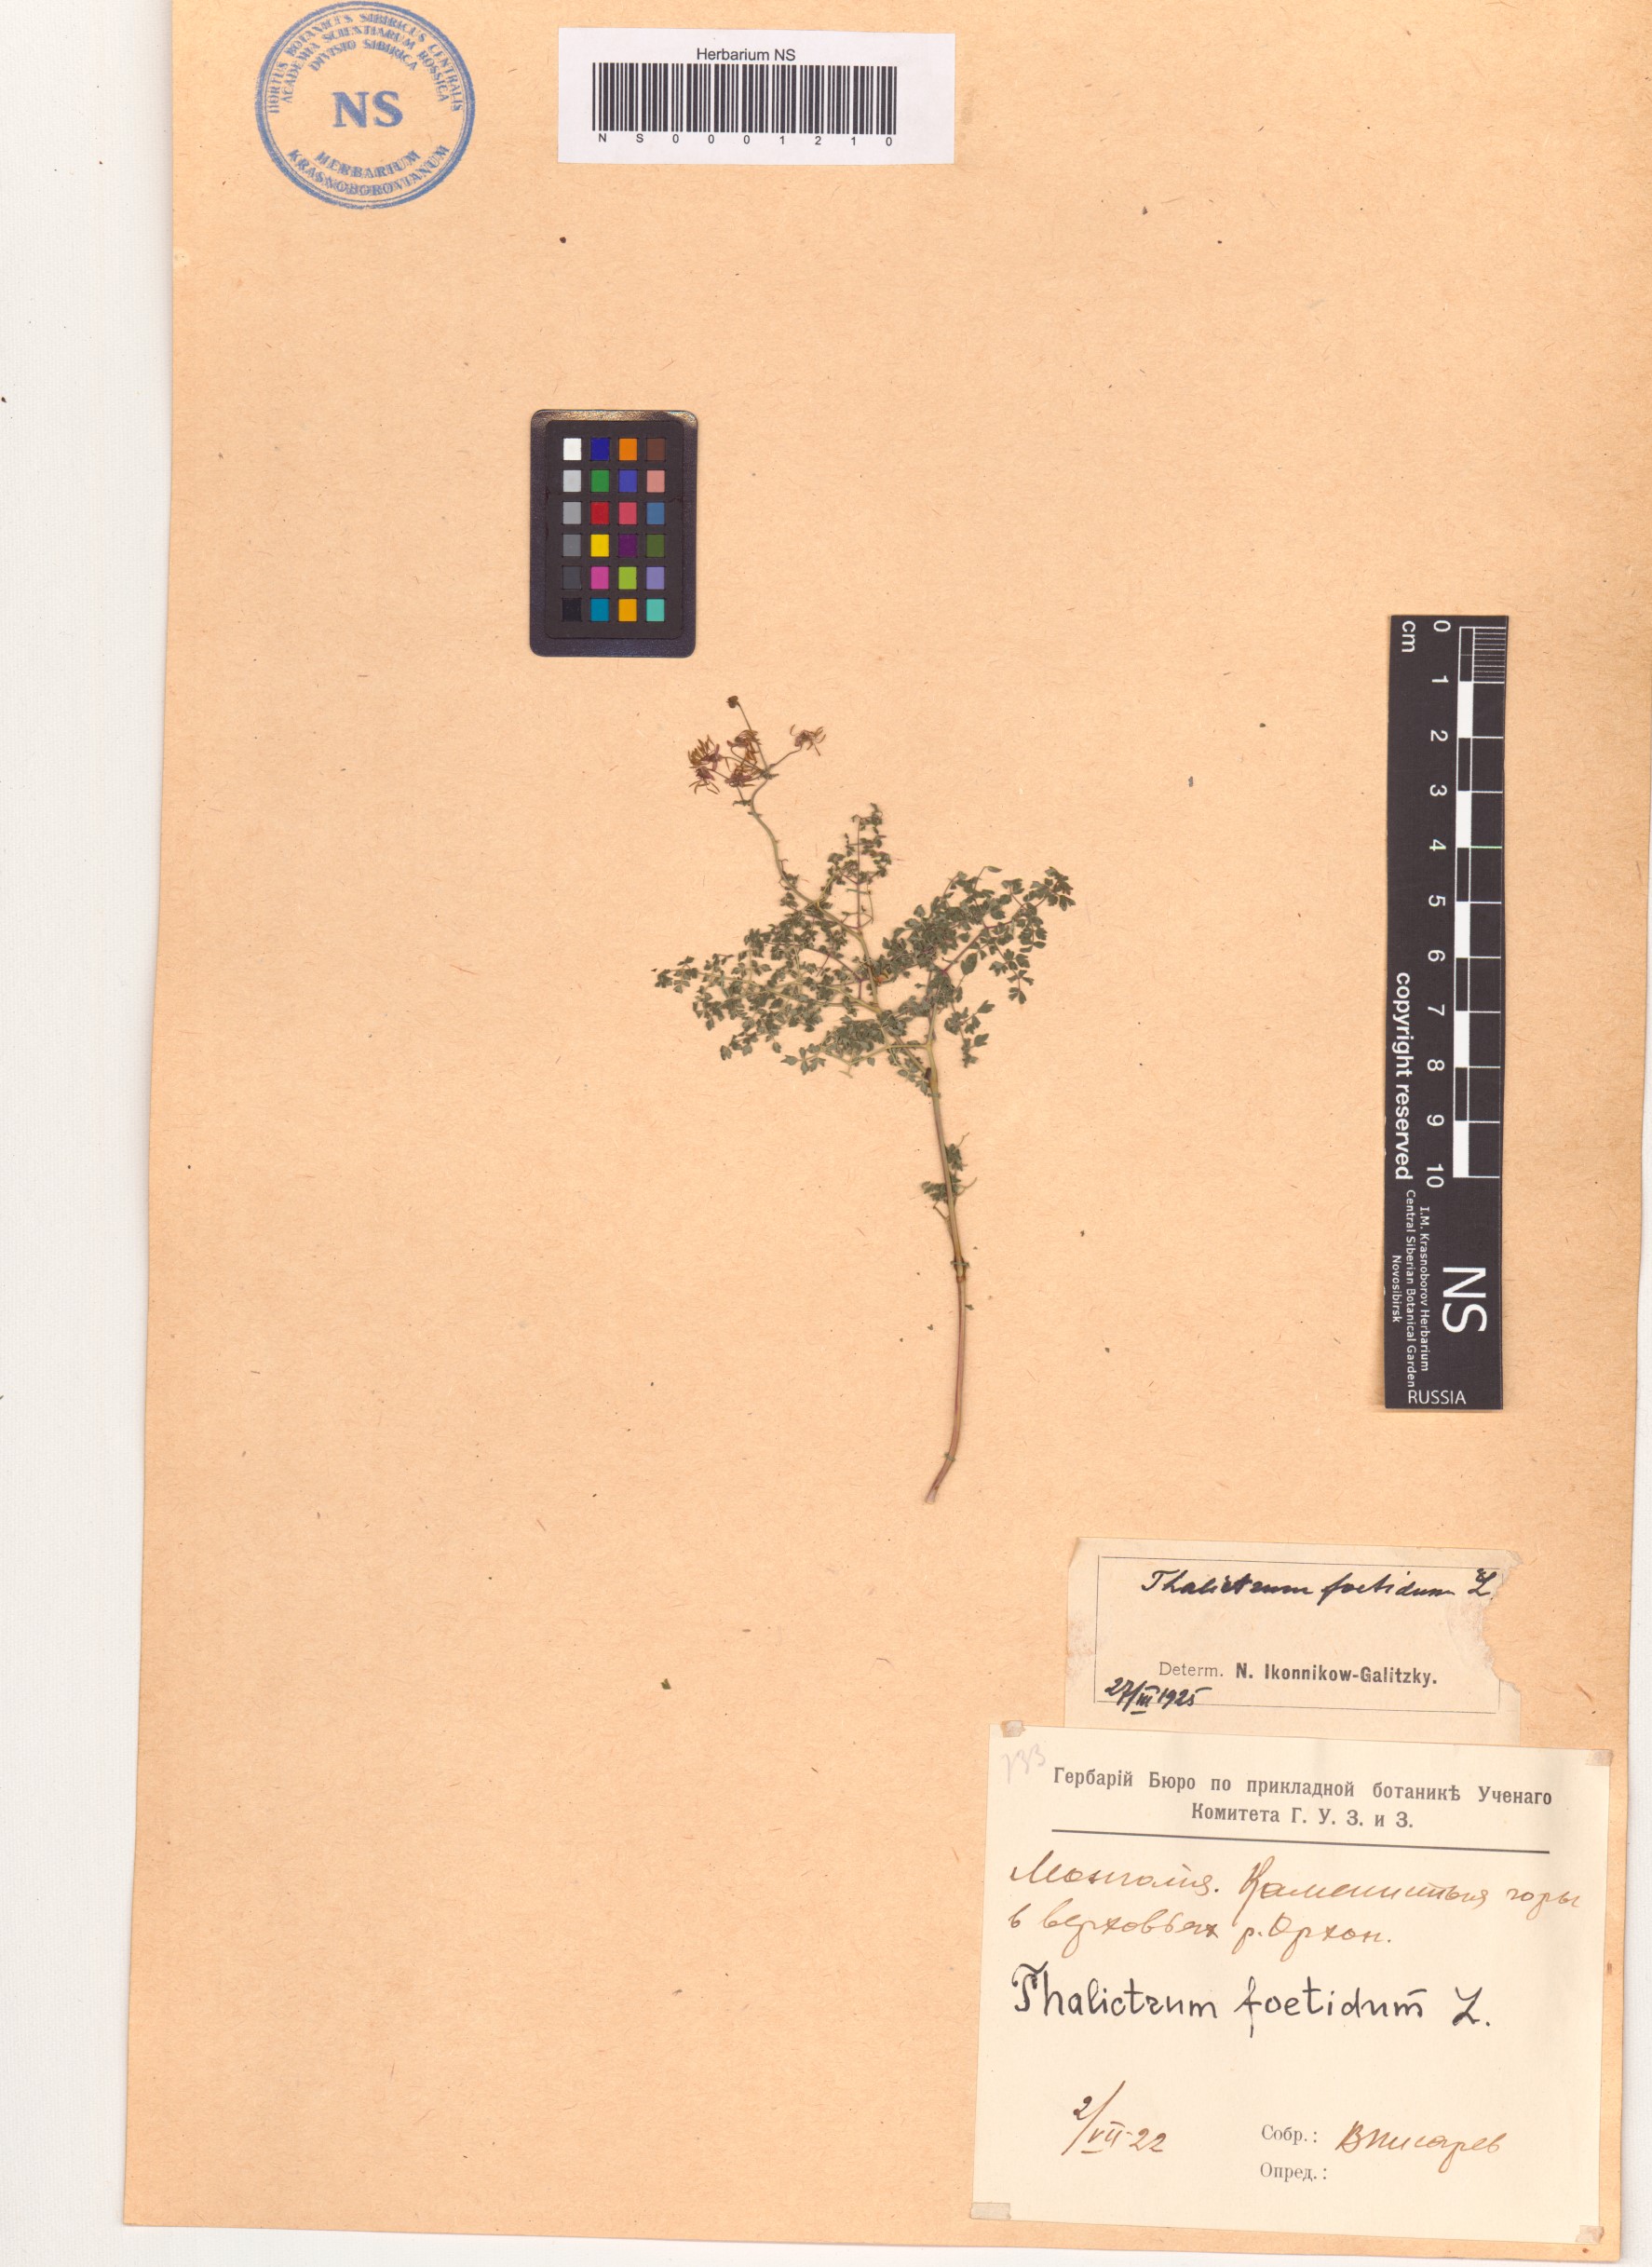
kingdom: Plantae
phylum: Tracheophyta
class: Magnoliopsida
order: Ranunculales
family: Ranunculaceae
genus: Thalictrum
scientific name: Thalictrum foetidum
